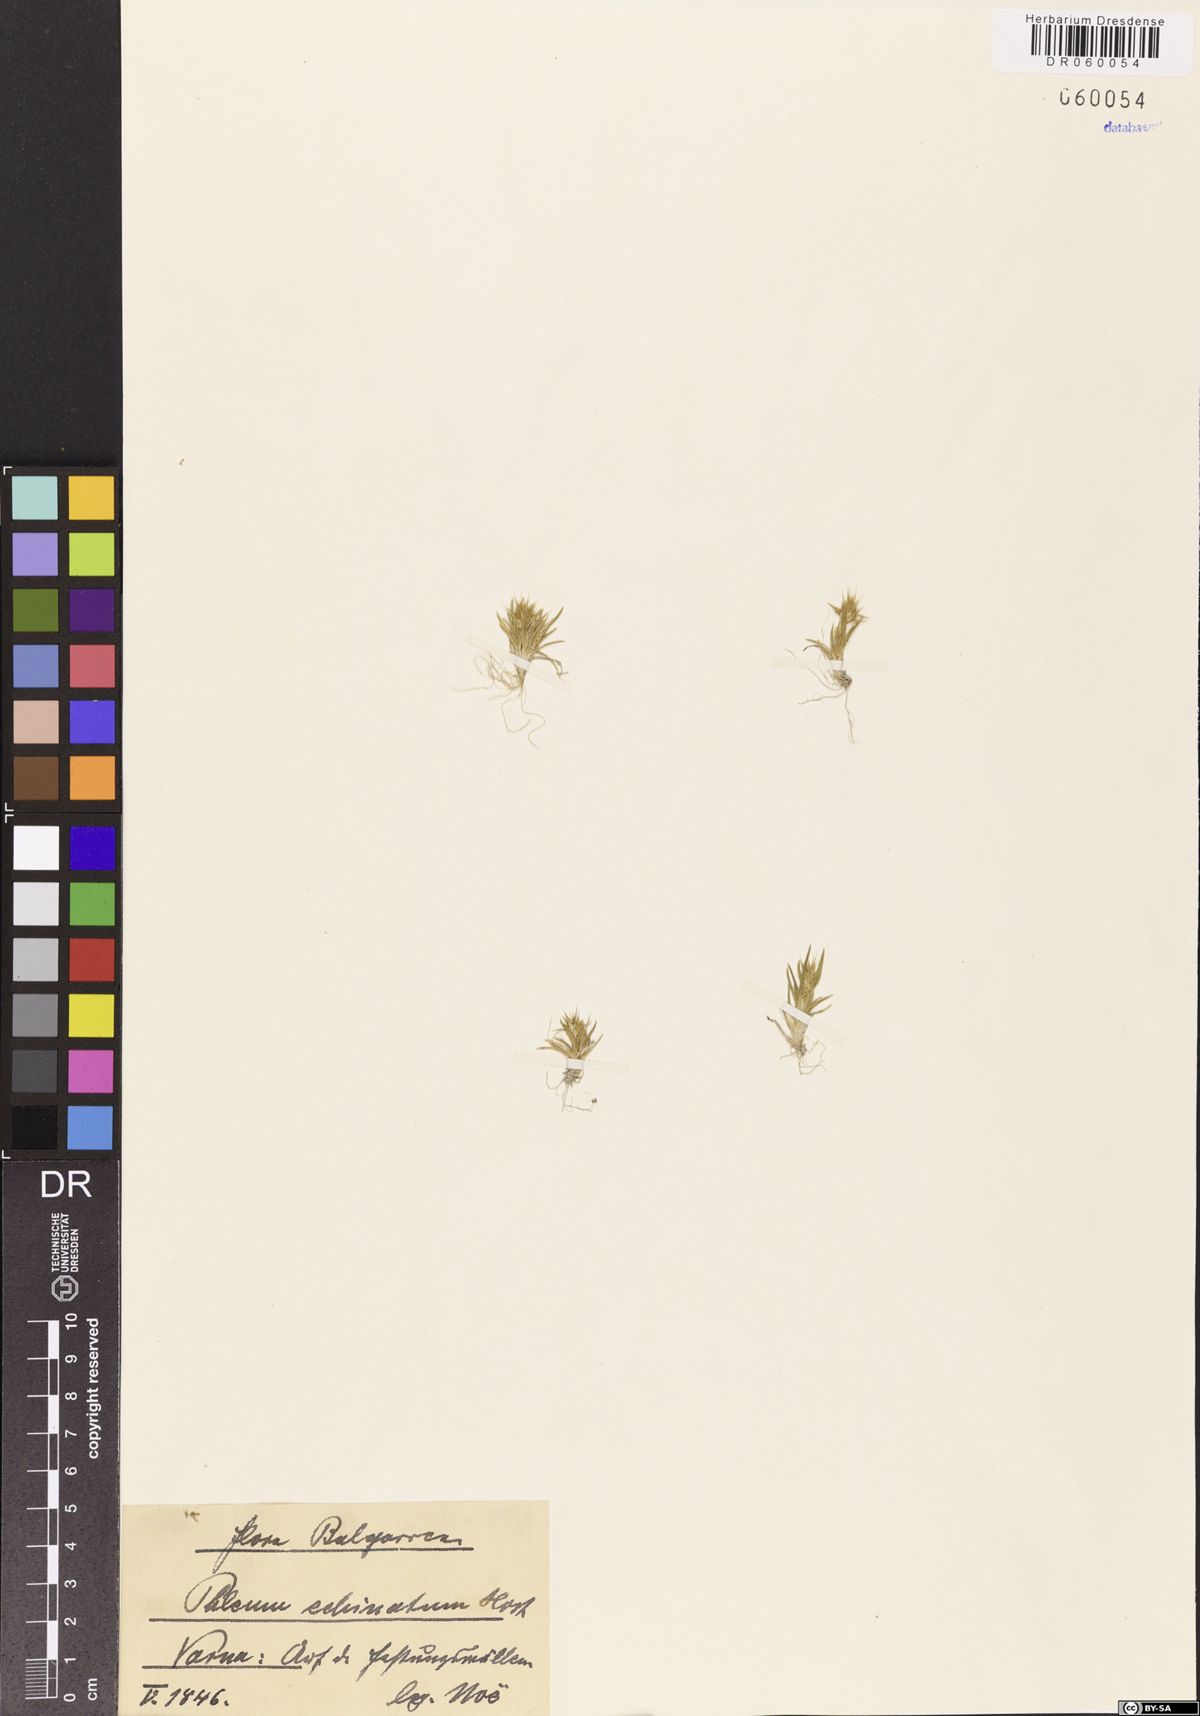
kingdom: Plantae
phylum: Tracheophyta
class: Liliopsida
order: Poales
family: Poaceae
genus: Phleum
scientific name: Phleum echinatum
